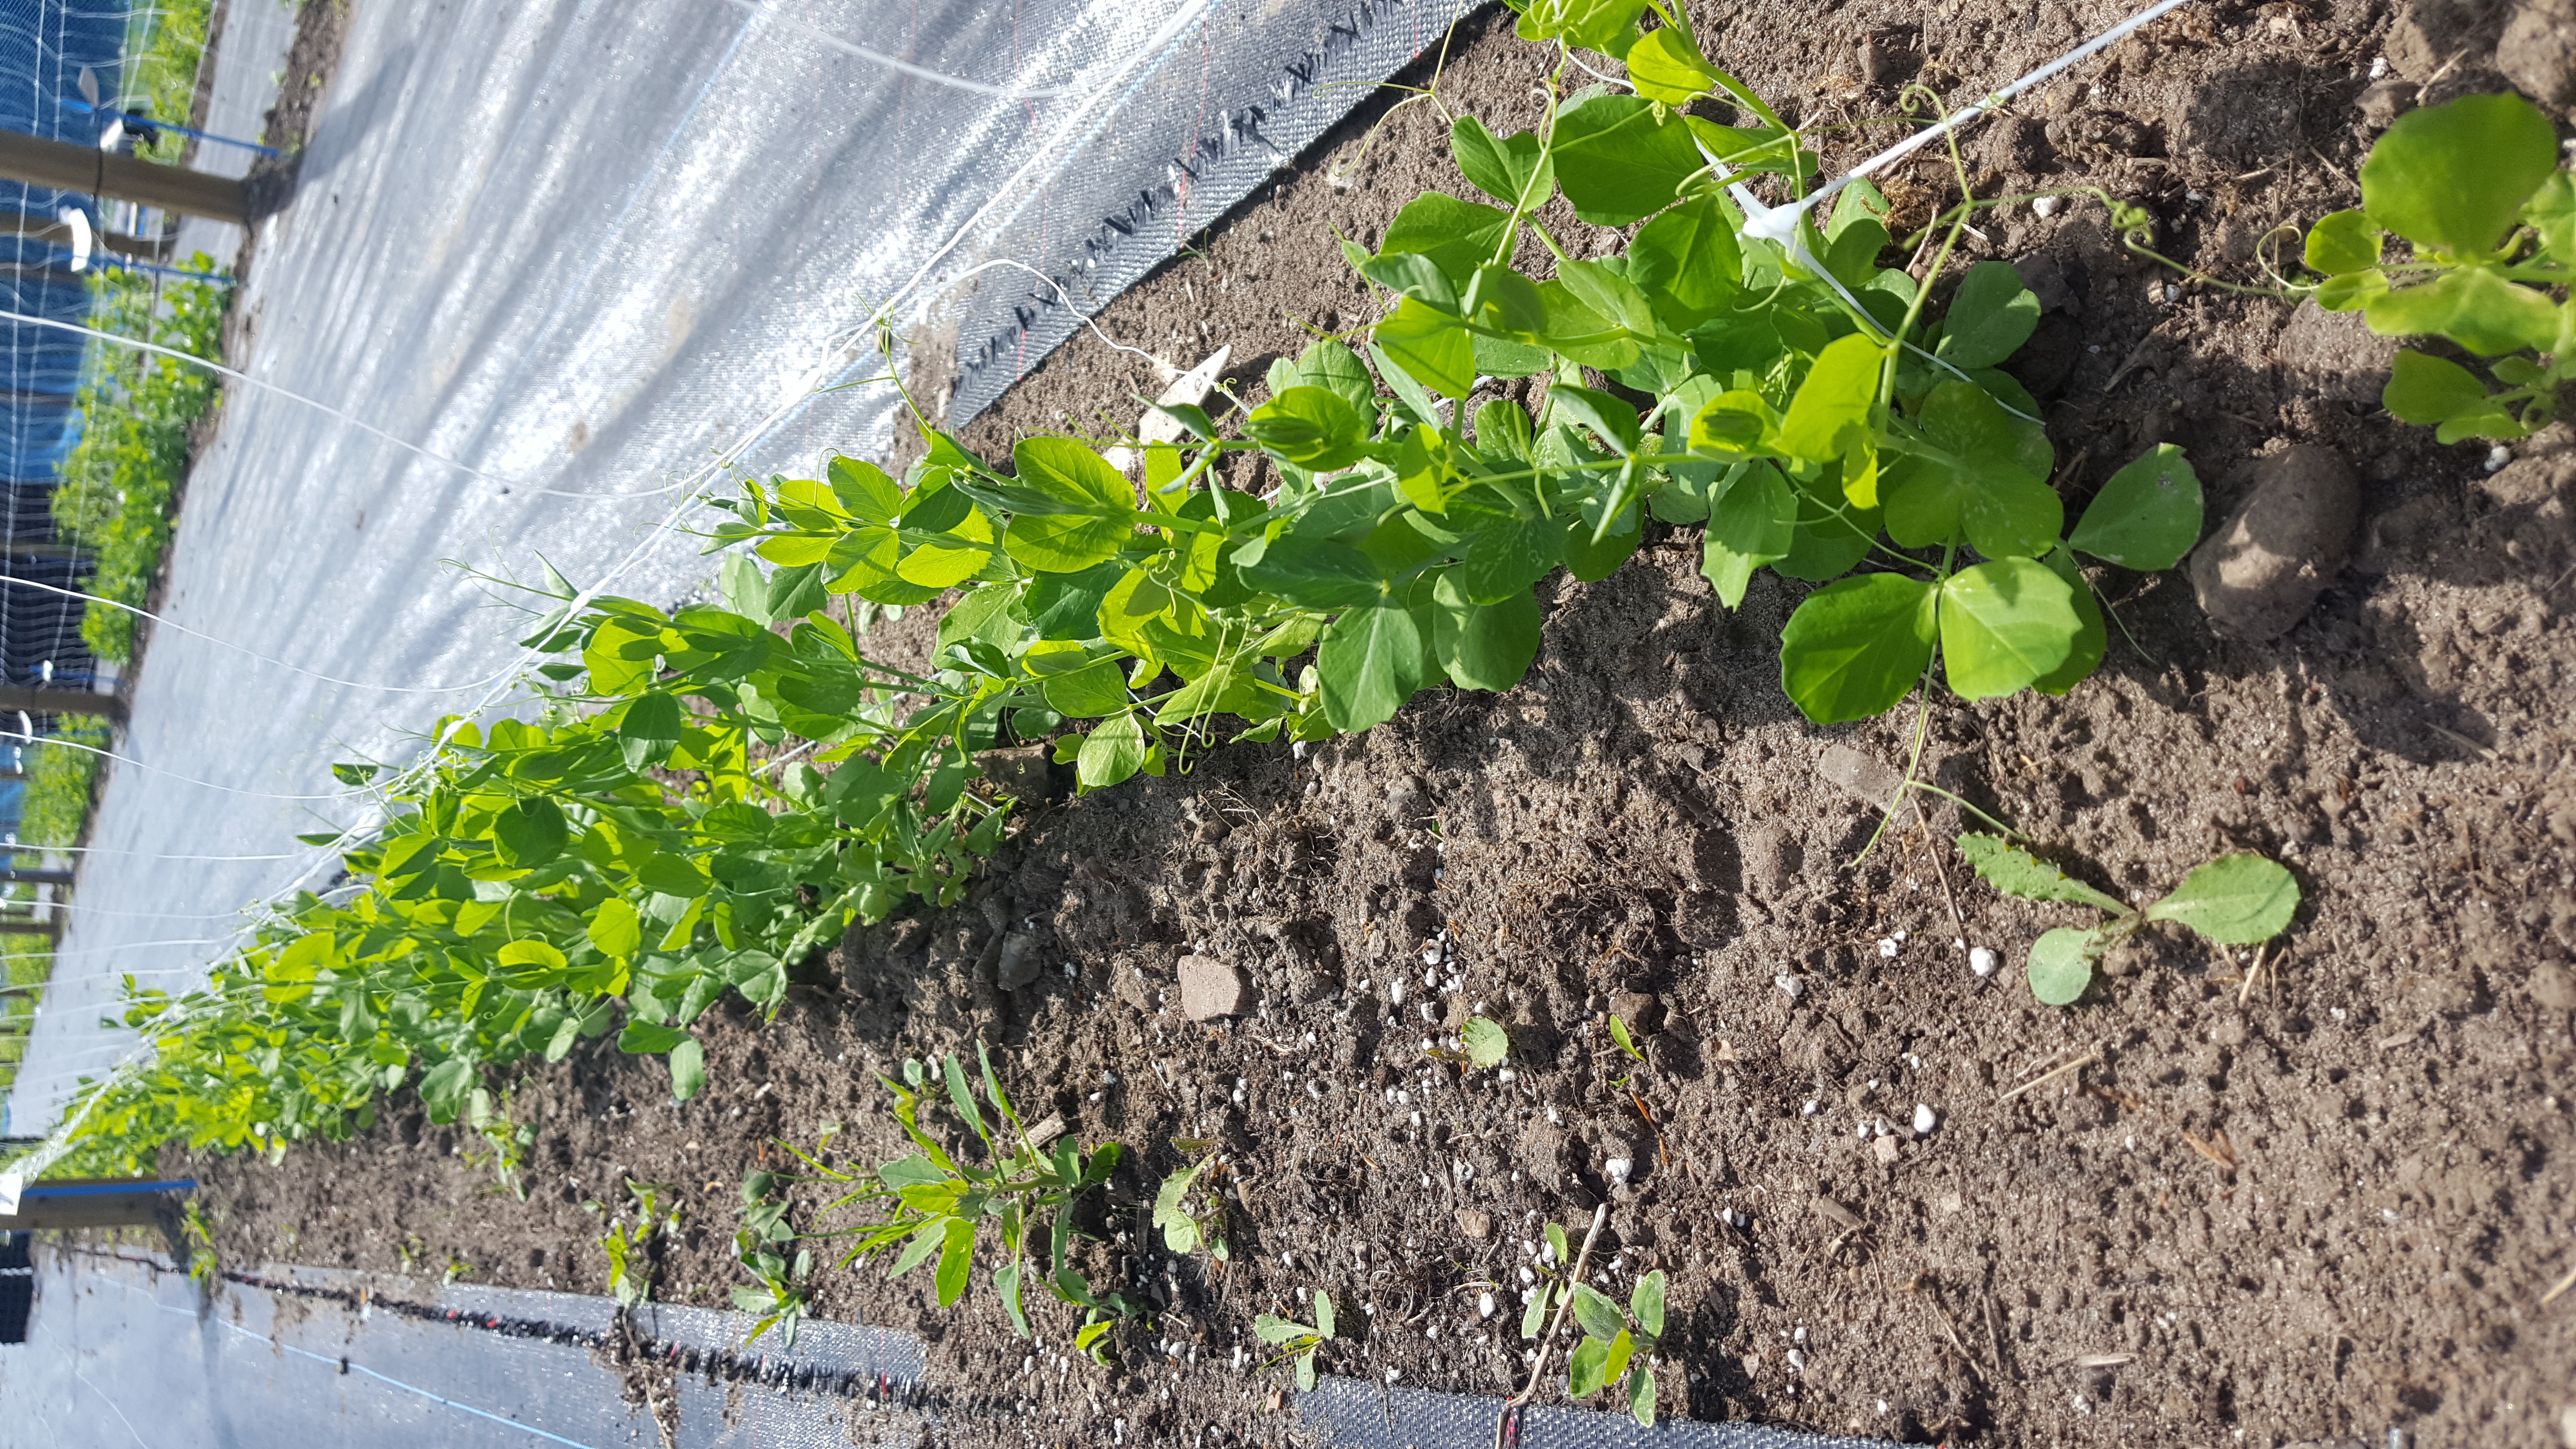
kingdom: Plantae
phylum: Tracheophyta
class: Magnoliopsida
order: Fabales
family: Fabaceae
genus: Lathyrus
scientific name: Lathyrus oleraceus
